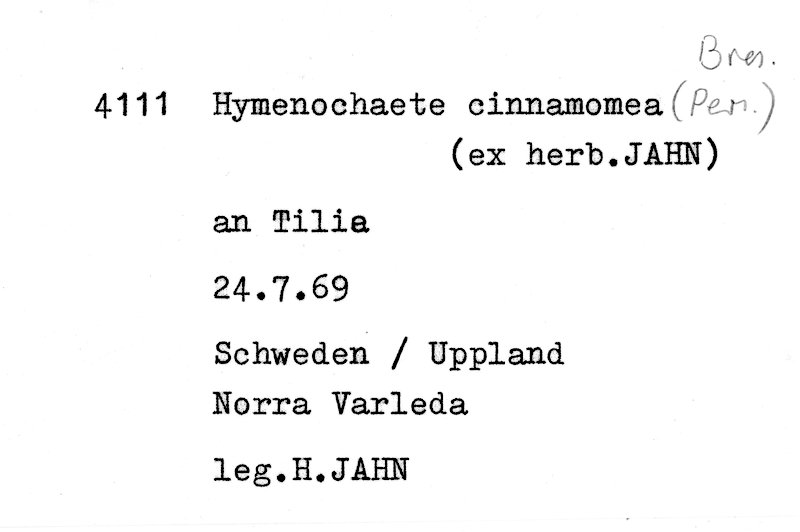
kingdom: Plantae
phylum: Tracheophyta
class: Magnoliopsida
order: Malvales
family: Malvaceae
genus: Tilia
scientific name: Tilia
